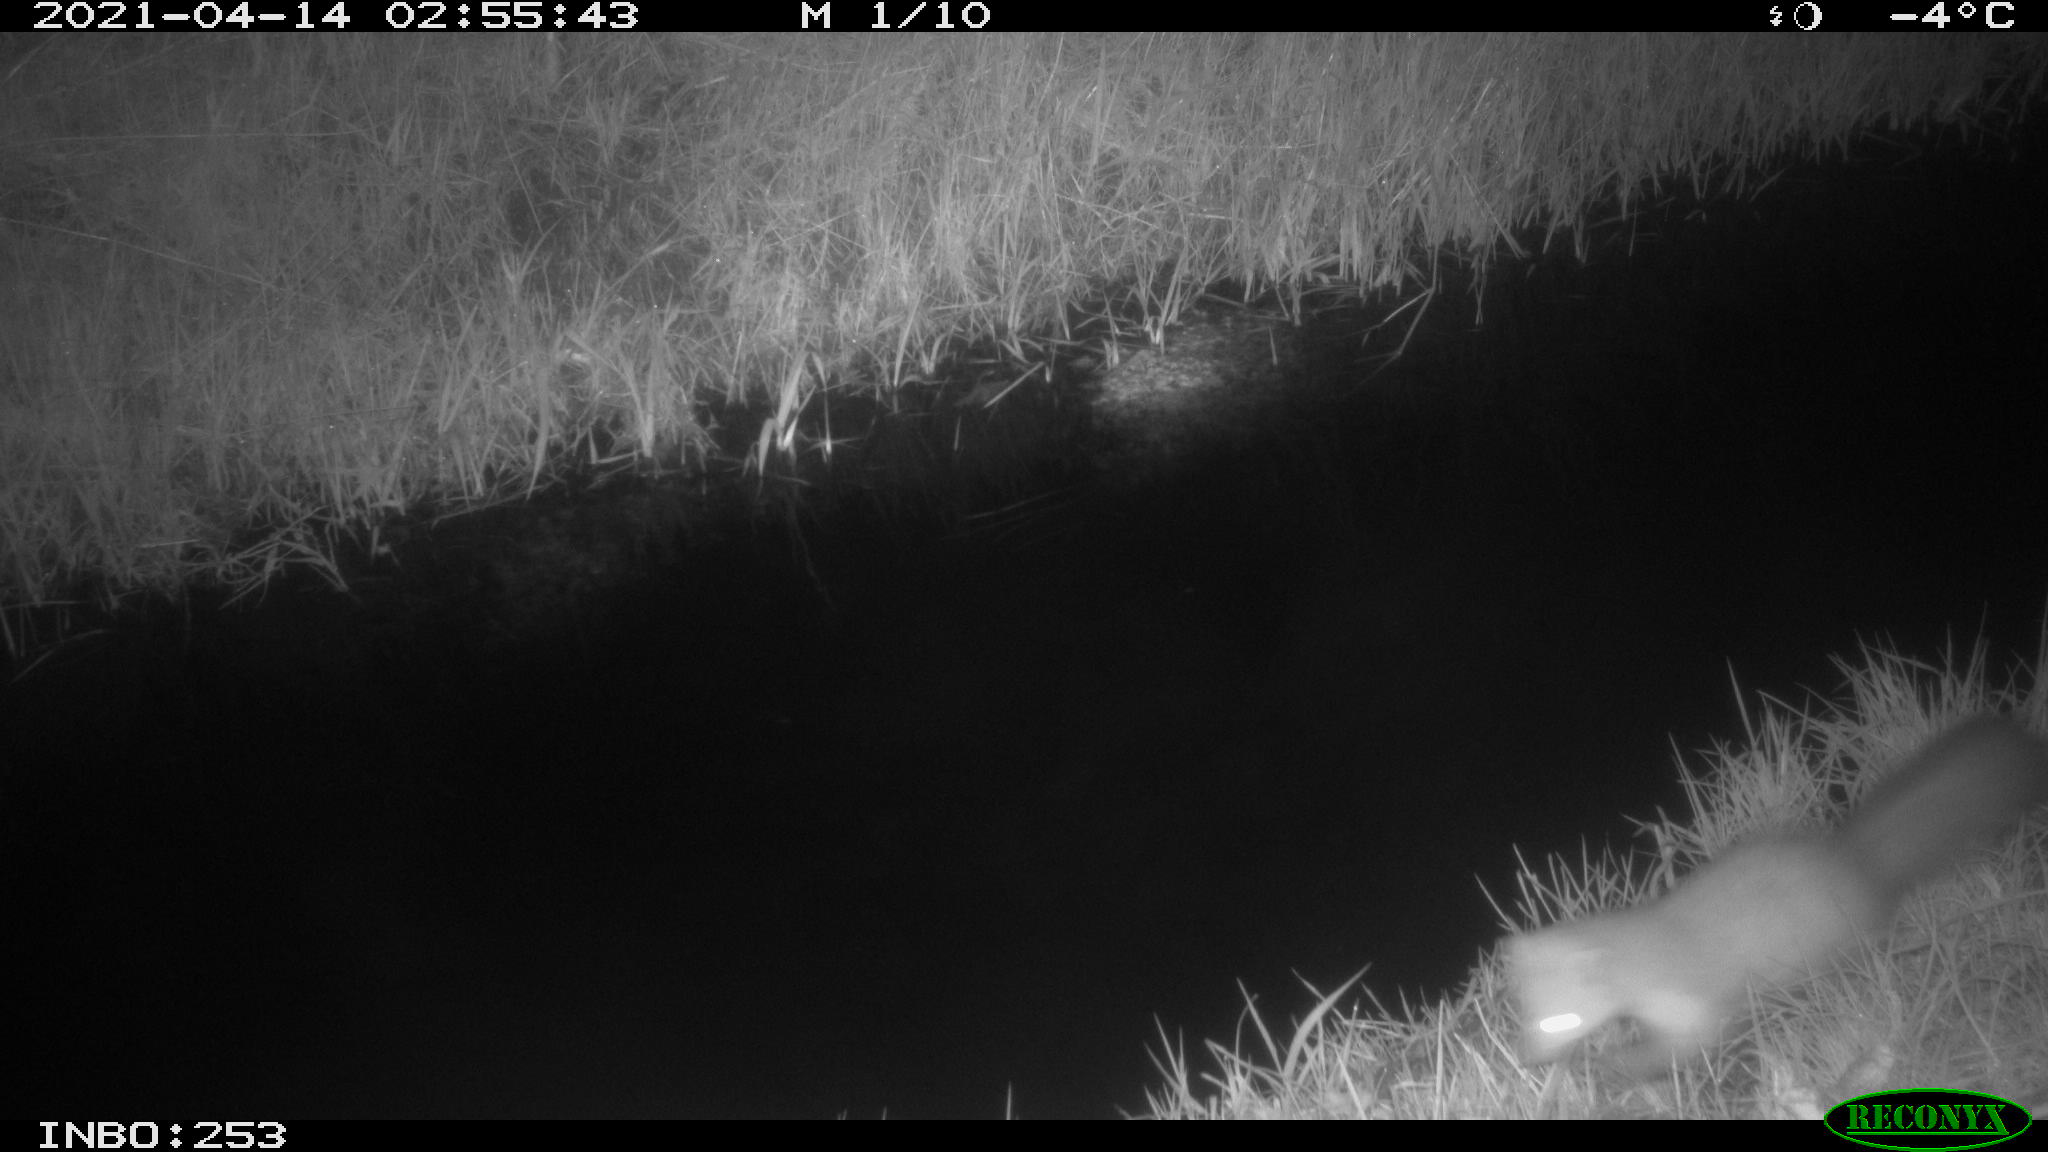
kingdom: Animalia
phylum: Chordata
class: Mammalia
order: Carnivora
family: Mustelidae
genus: Martes
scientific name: Martes foina
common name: Beech marten
